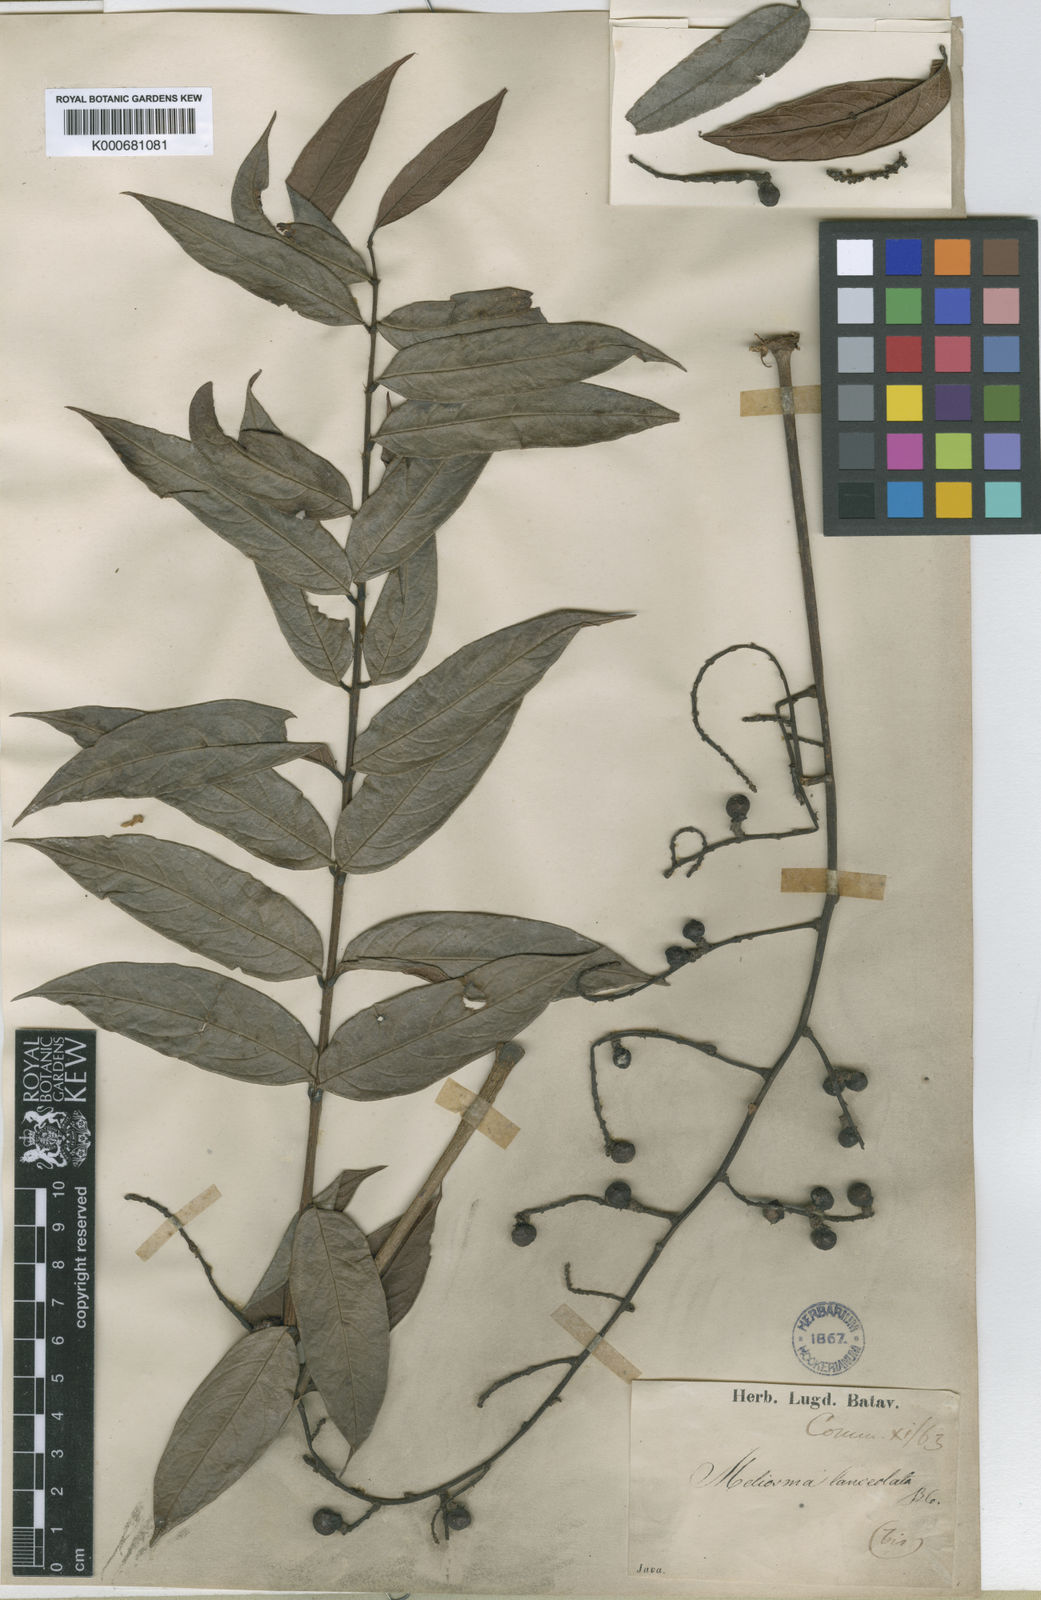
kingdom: Plantae
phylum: Tracheophyta
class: Magnoliopsida
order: Proteales
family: Sabiaceae
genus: Meliosma
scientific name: Meliosma sumatrana
